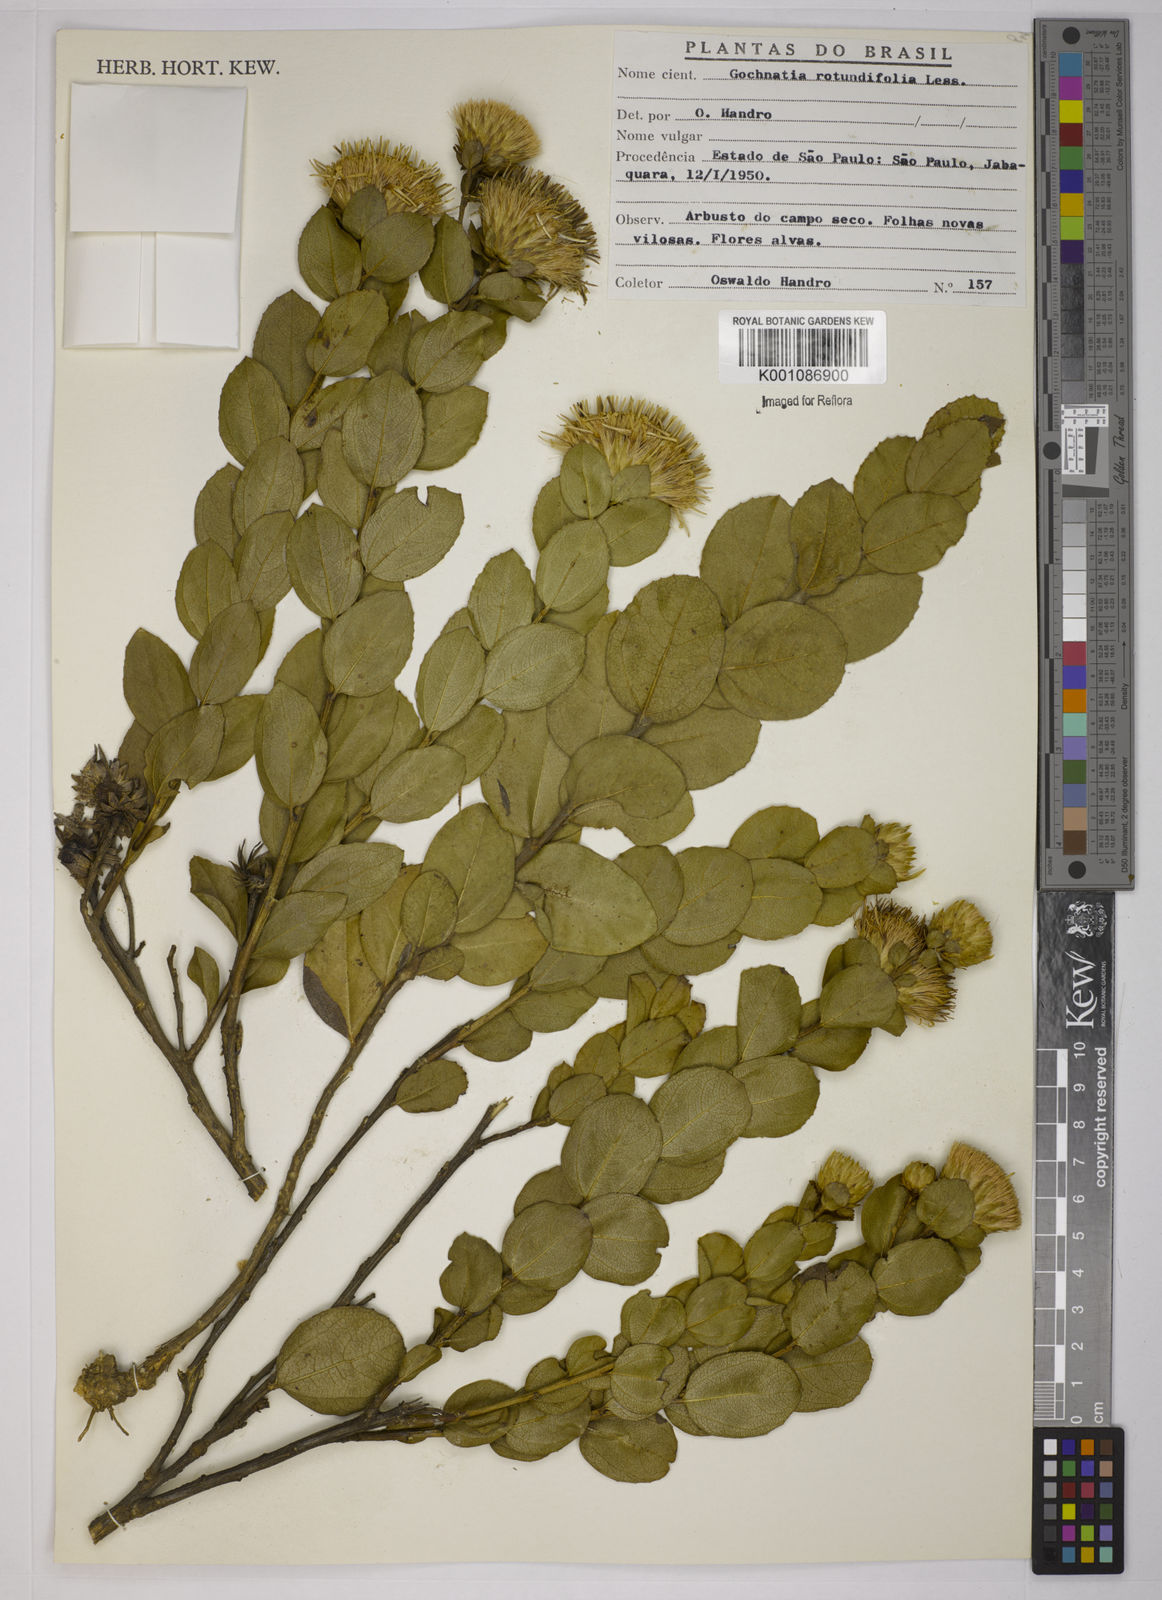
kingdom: Plantae
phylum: Tracheophyta
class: Magnoliopsida
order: Asterales
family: Asteraceae
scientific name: Asteraceae
